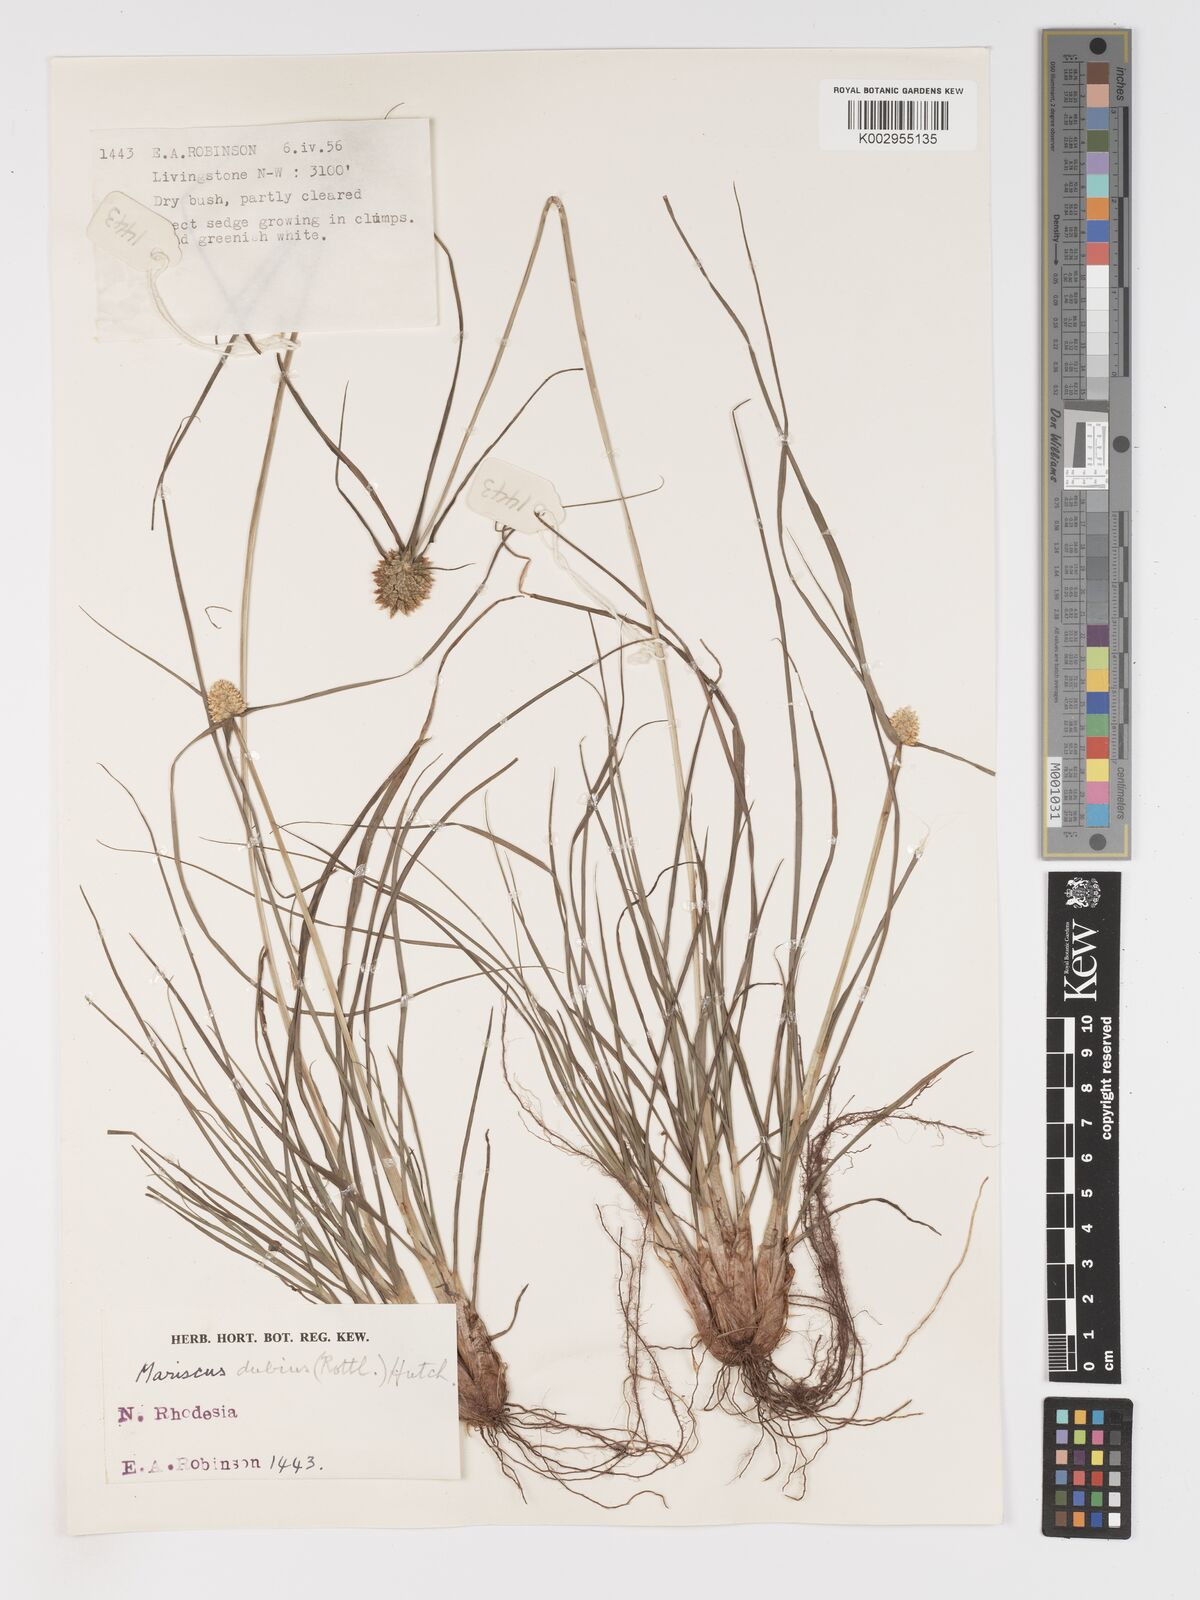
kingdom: Plantae
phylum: Tracheophyta
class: Liliopsida
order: Poales
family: Cyperaceae
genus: Cyperus
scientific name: Cyperus dubius
